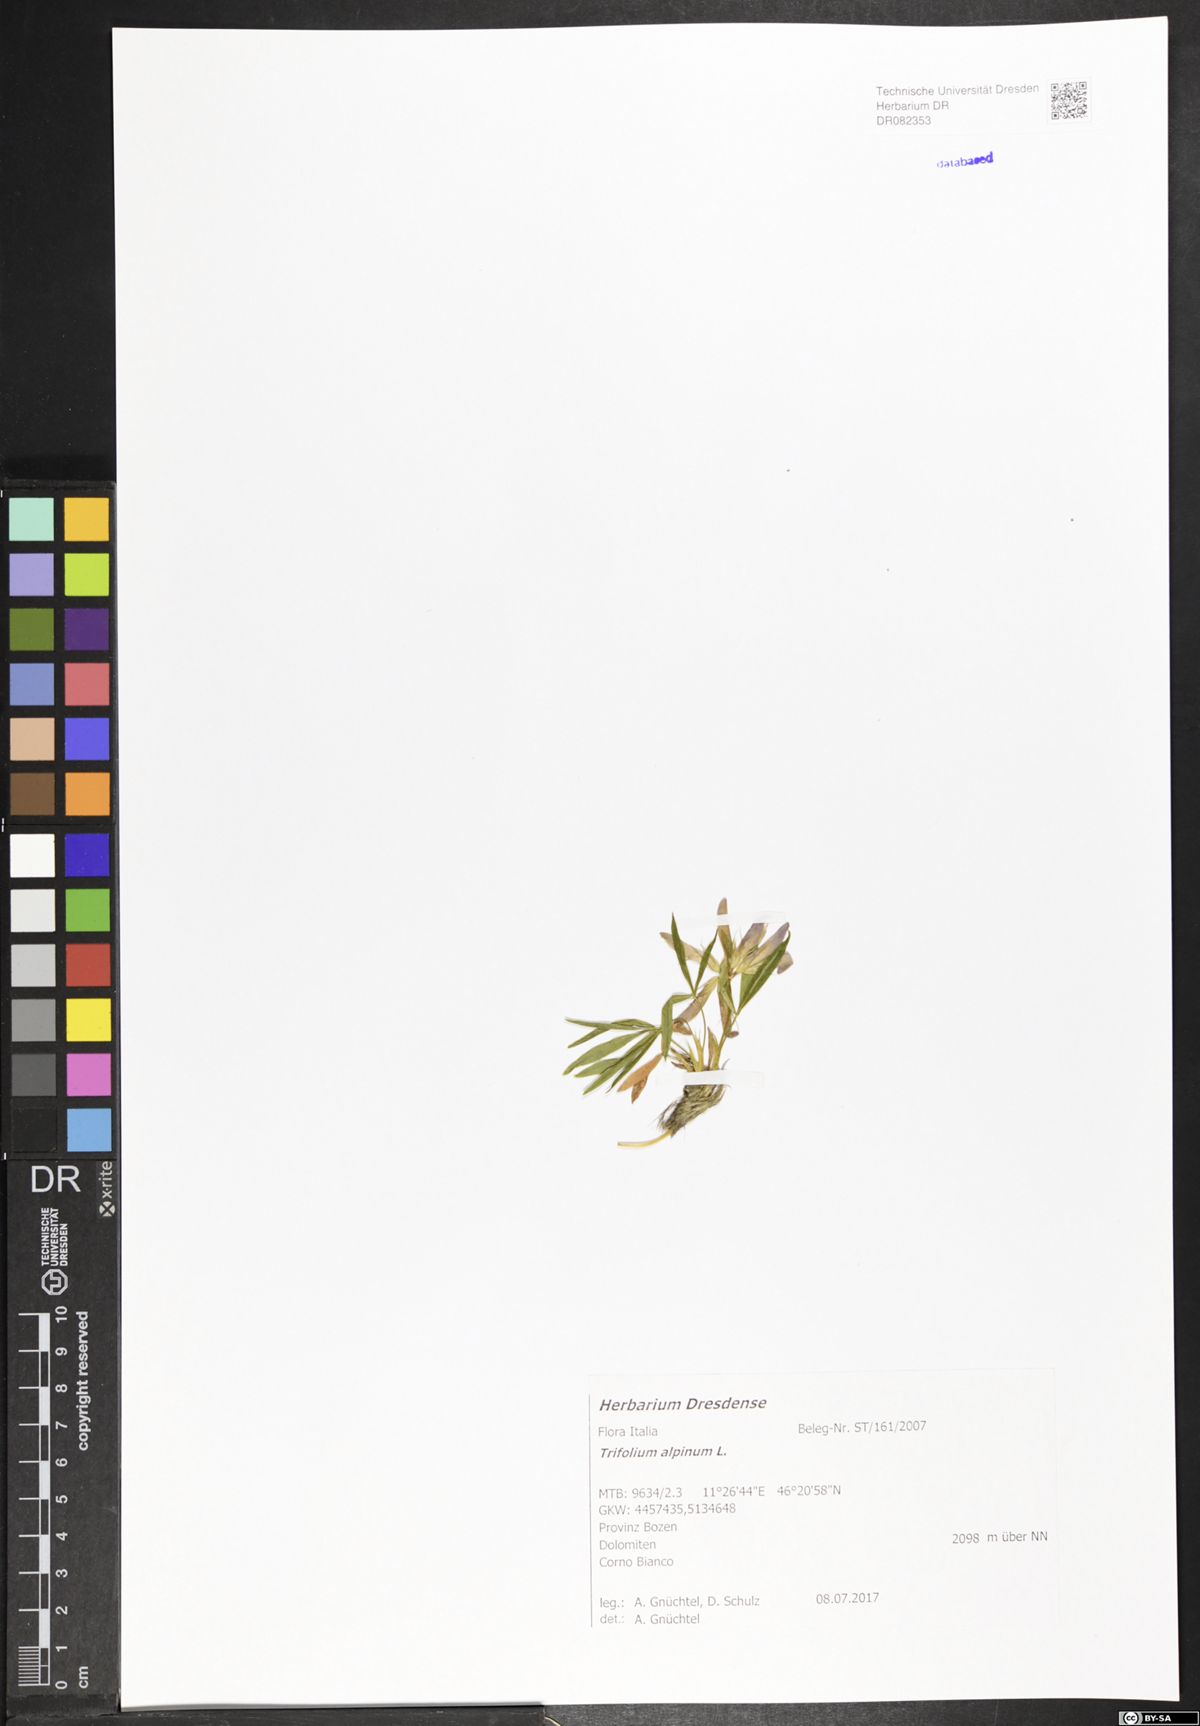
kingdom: Plantae
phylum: Tracheophyta
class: Magnoliopsida
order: Fabales
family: Fabaceae
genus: Trifolium
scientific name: Trifolium alpinum
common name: Alpine clover
